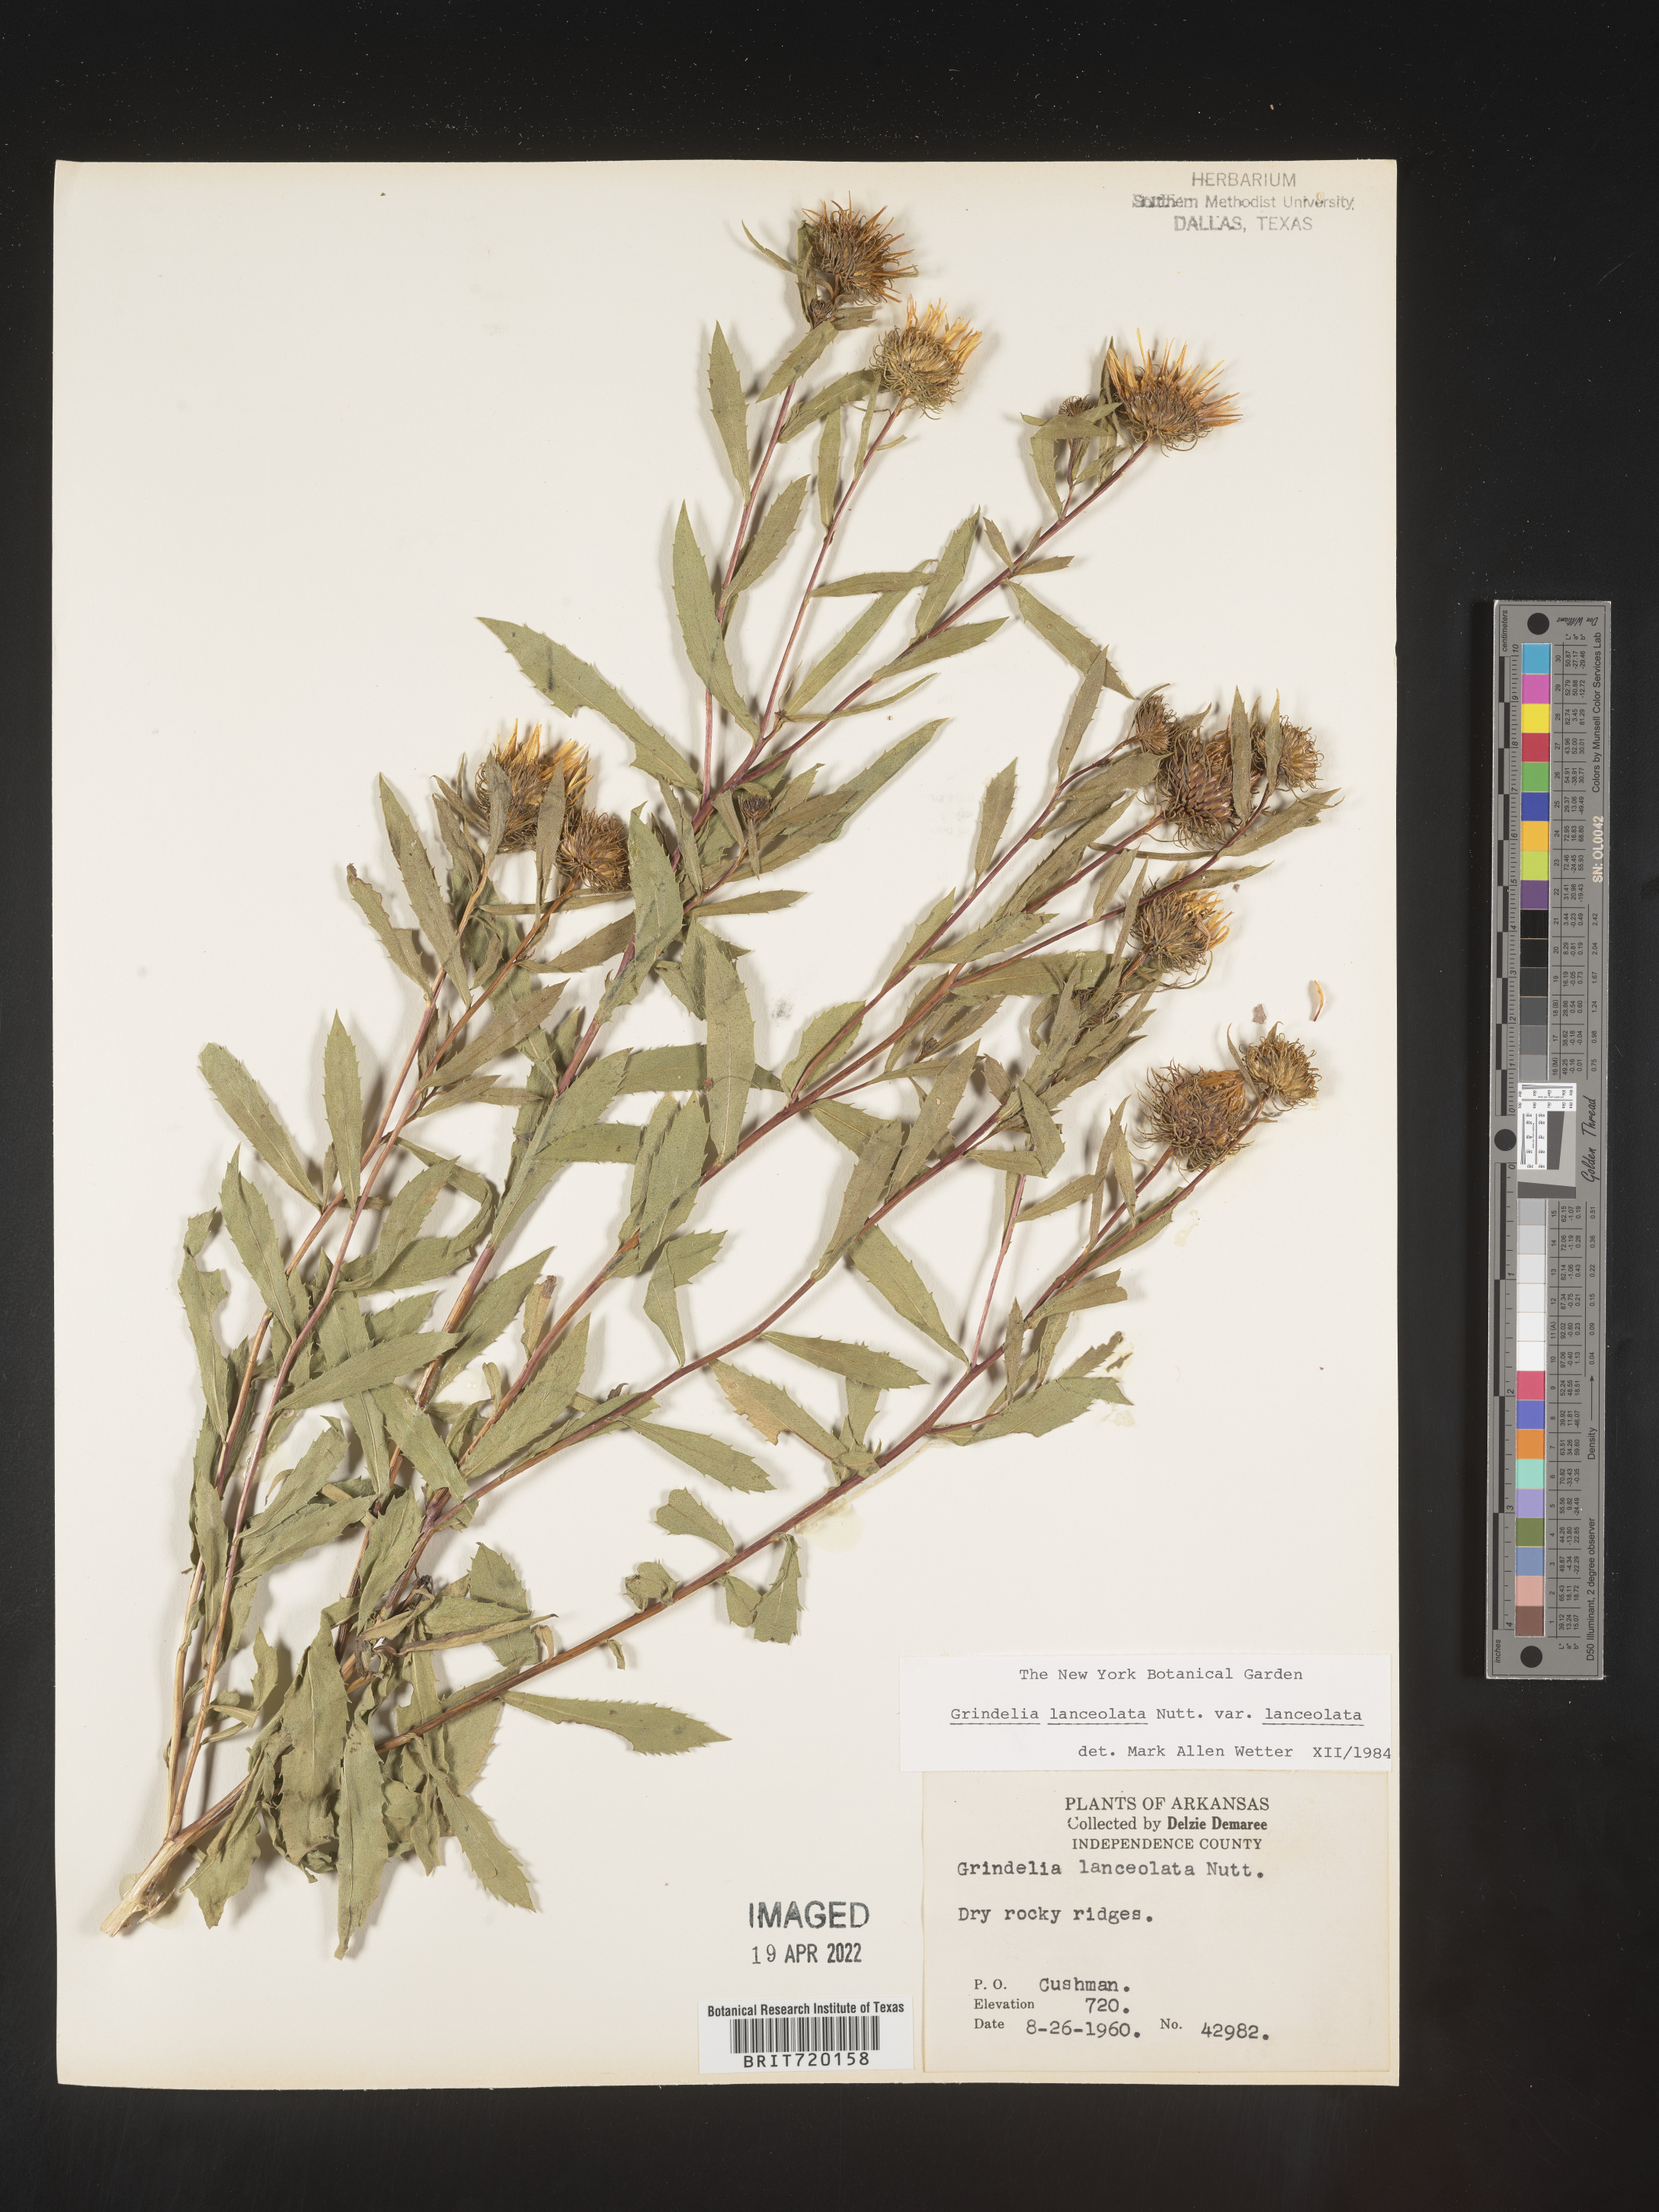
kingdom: Plantae
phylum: Tracheophyta
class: Magnoliopsida
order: Asterales
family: Asteraceae
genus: Grindelia
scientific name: Grindelia lanceolata
